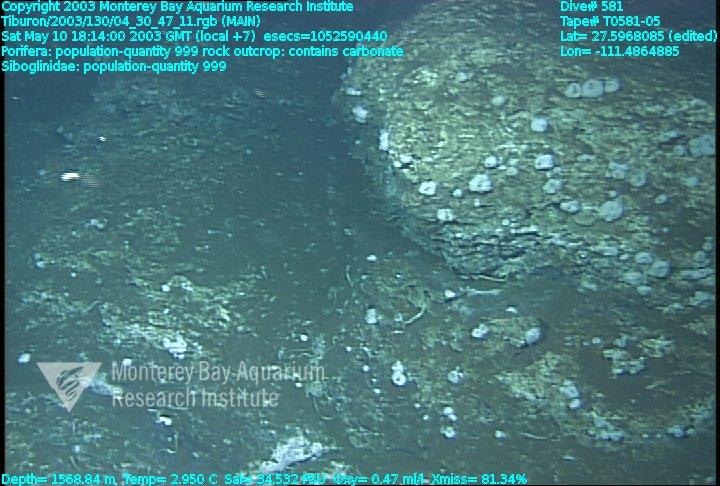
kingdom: Animalia
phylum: Porifera
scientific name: Porifera
